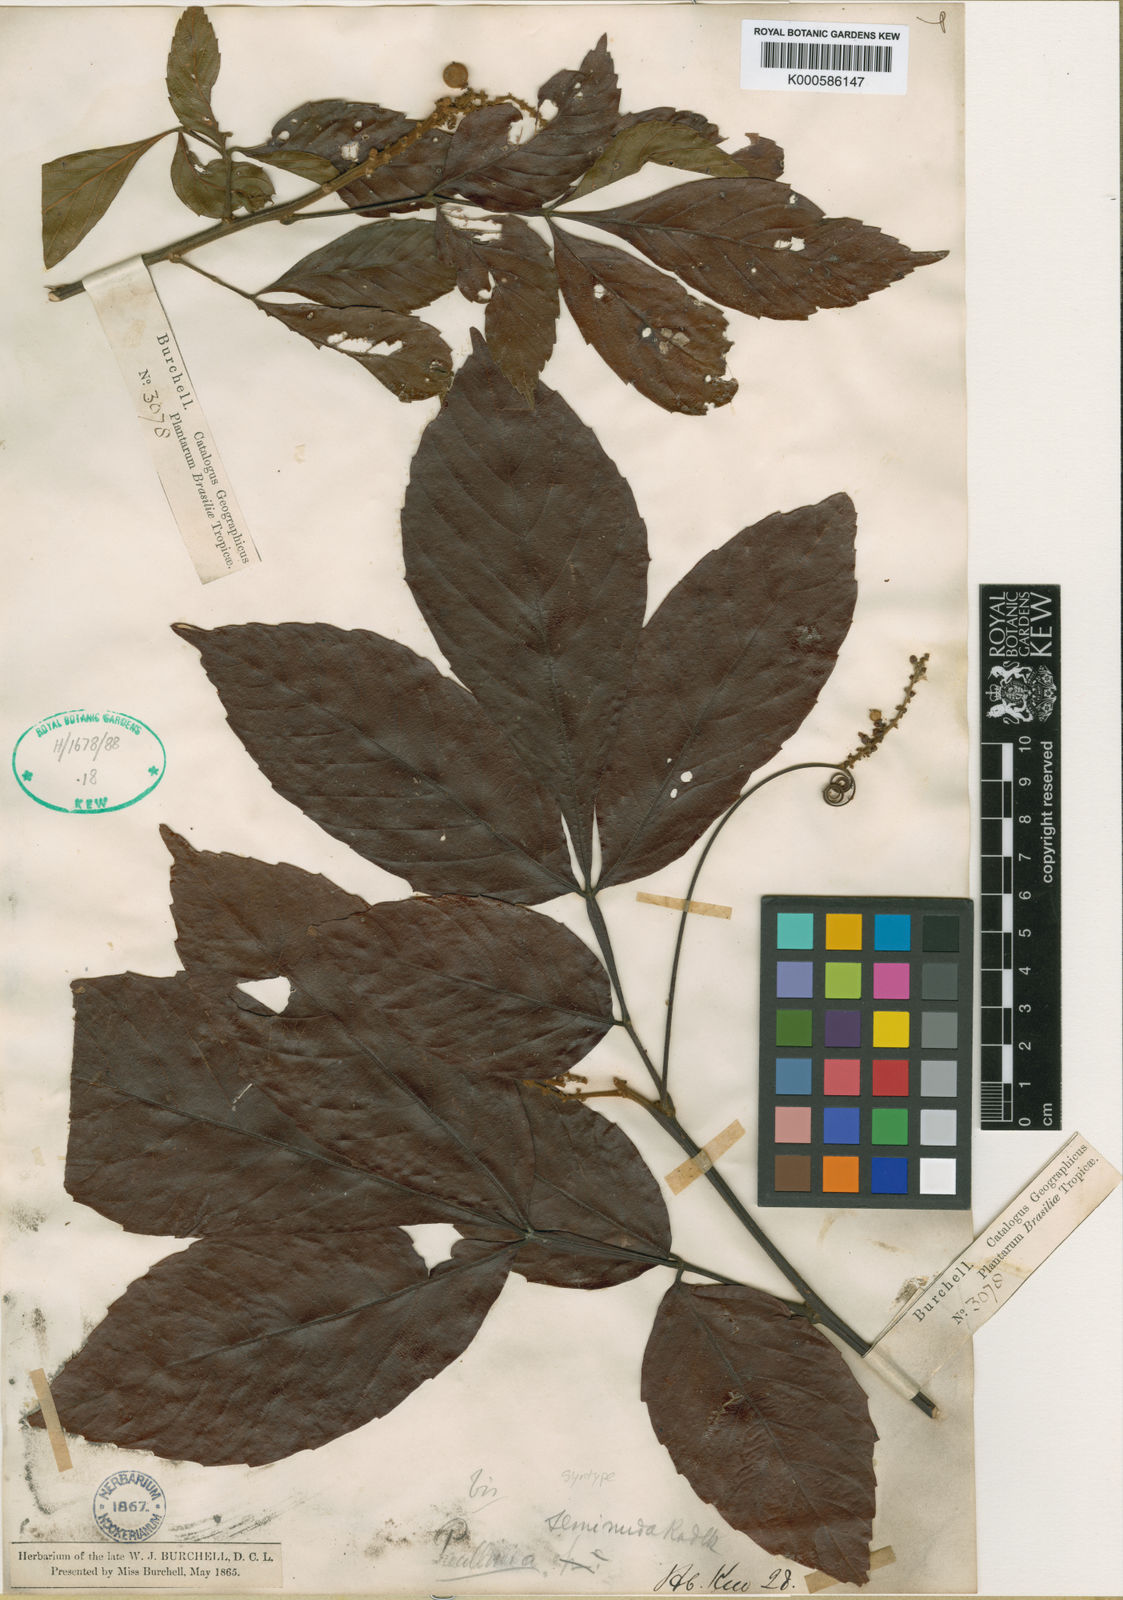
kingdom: Plantae
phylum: Tracheophyta
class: Magnoliopsida
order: Sapindales
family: Sapindaceae
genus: Paullinia
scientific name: Paullinia seminuda
